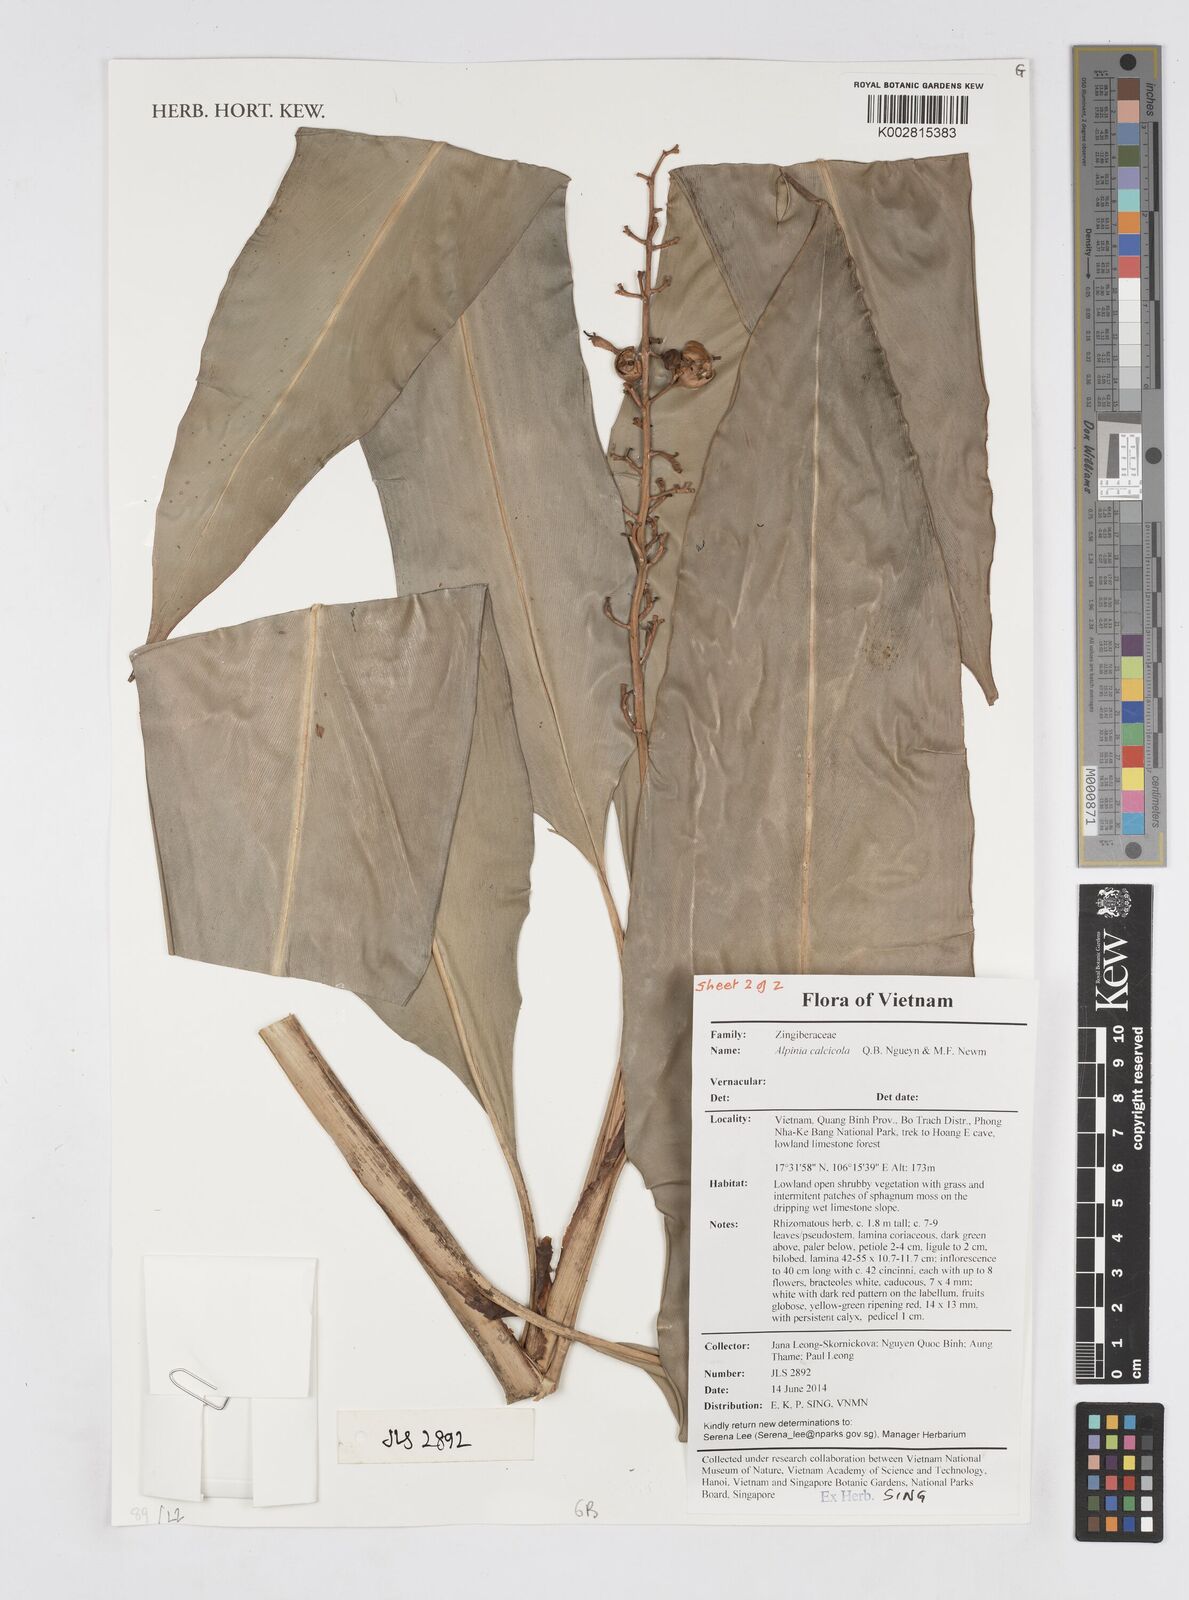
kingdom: Plantae
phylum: Tracheophyta
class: Liliopsida
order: Zingiberales
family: Zingiberaceae
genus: Alpinia
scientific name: Alpinia calcicola
